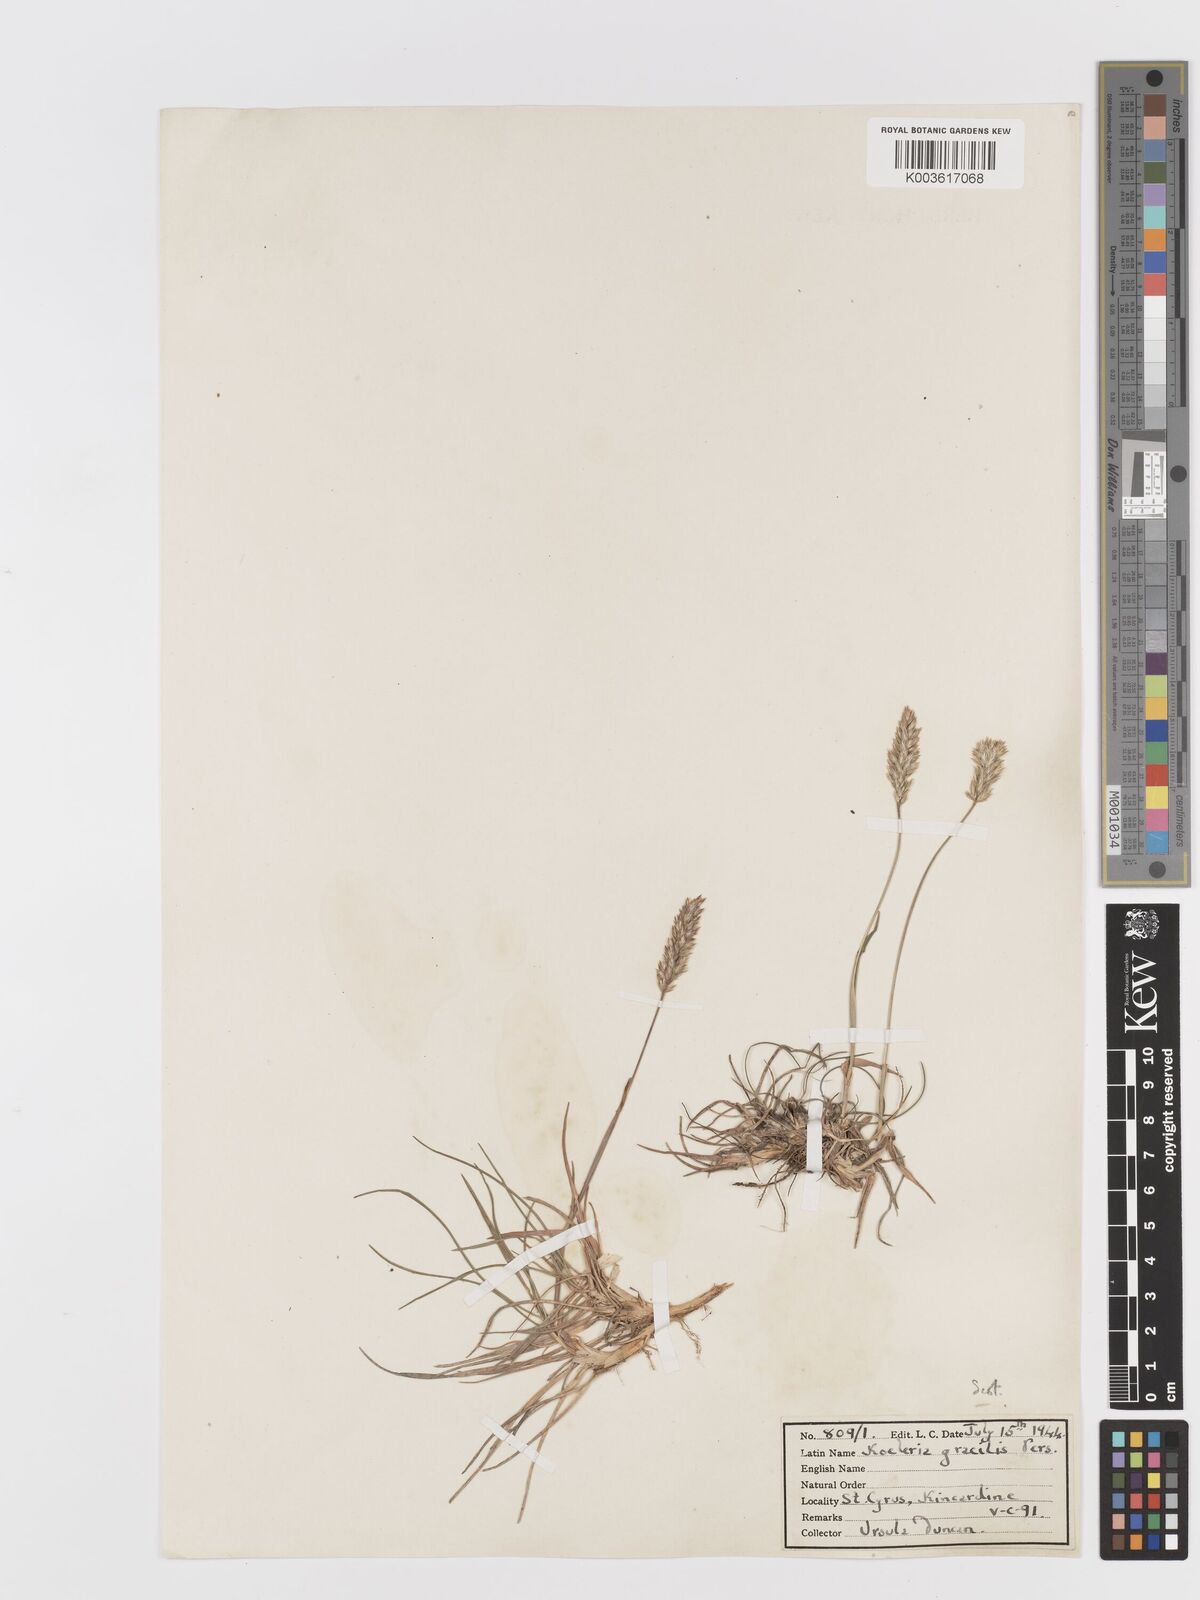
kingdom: Plantae
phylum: Tracheophyta
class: Liliopsida
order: Poales
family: Poaceae
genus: Koeleria
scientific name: Koeleria macrantha
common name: Crested hair-grass
